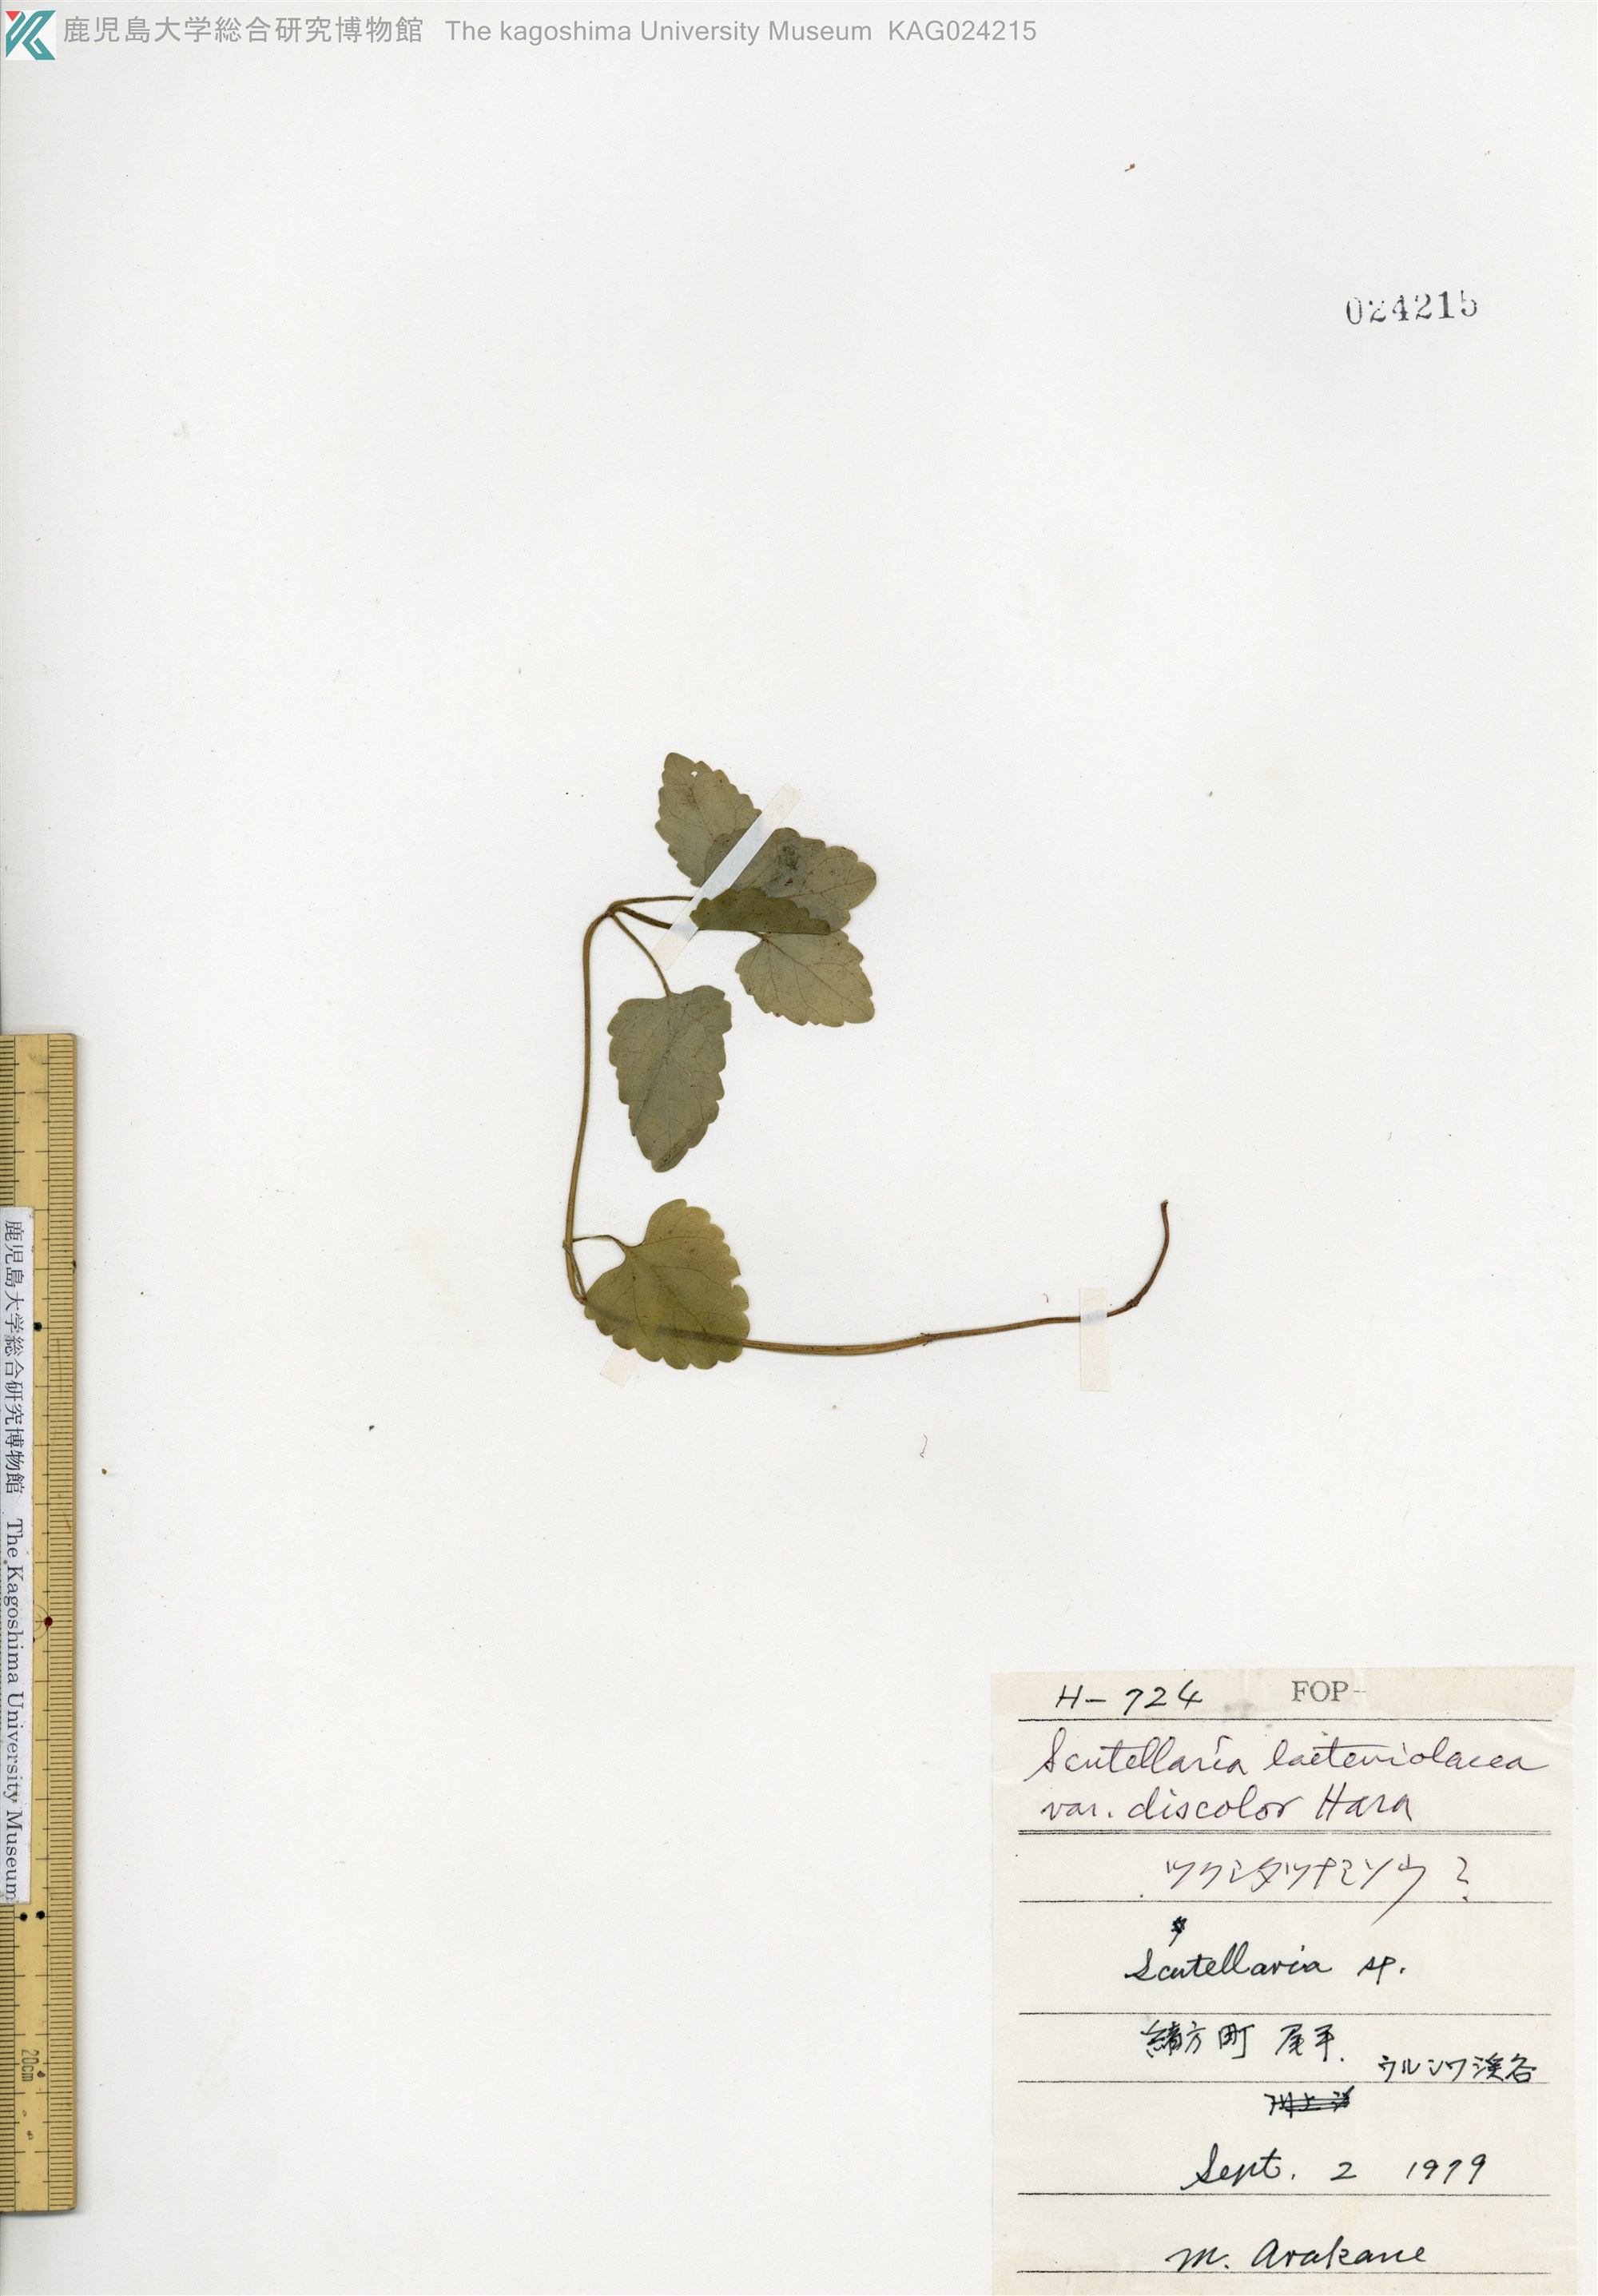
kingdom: Plantae
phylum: Tracheophyta
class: Magnoliopsida
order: Lamiales
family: Lamiaceae
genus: Scutellaria
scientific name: Scutellaria laeteviolacea
